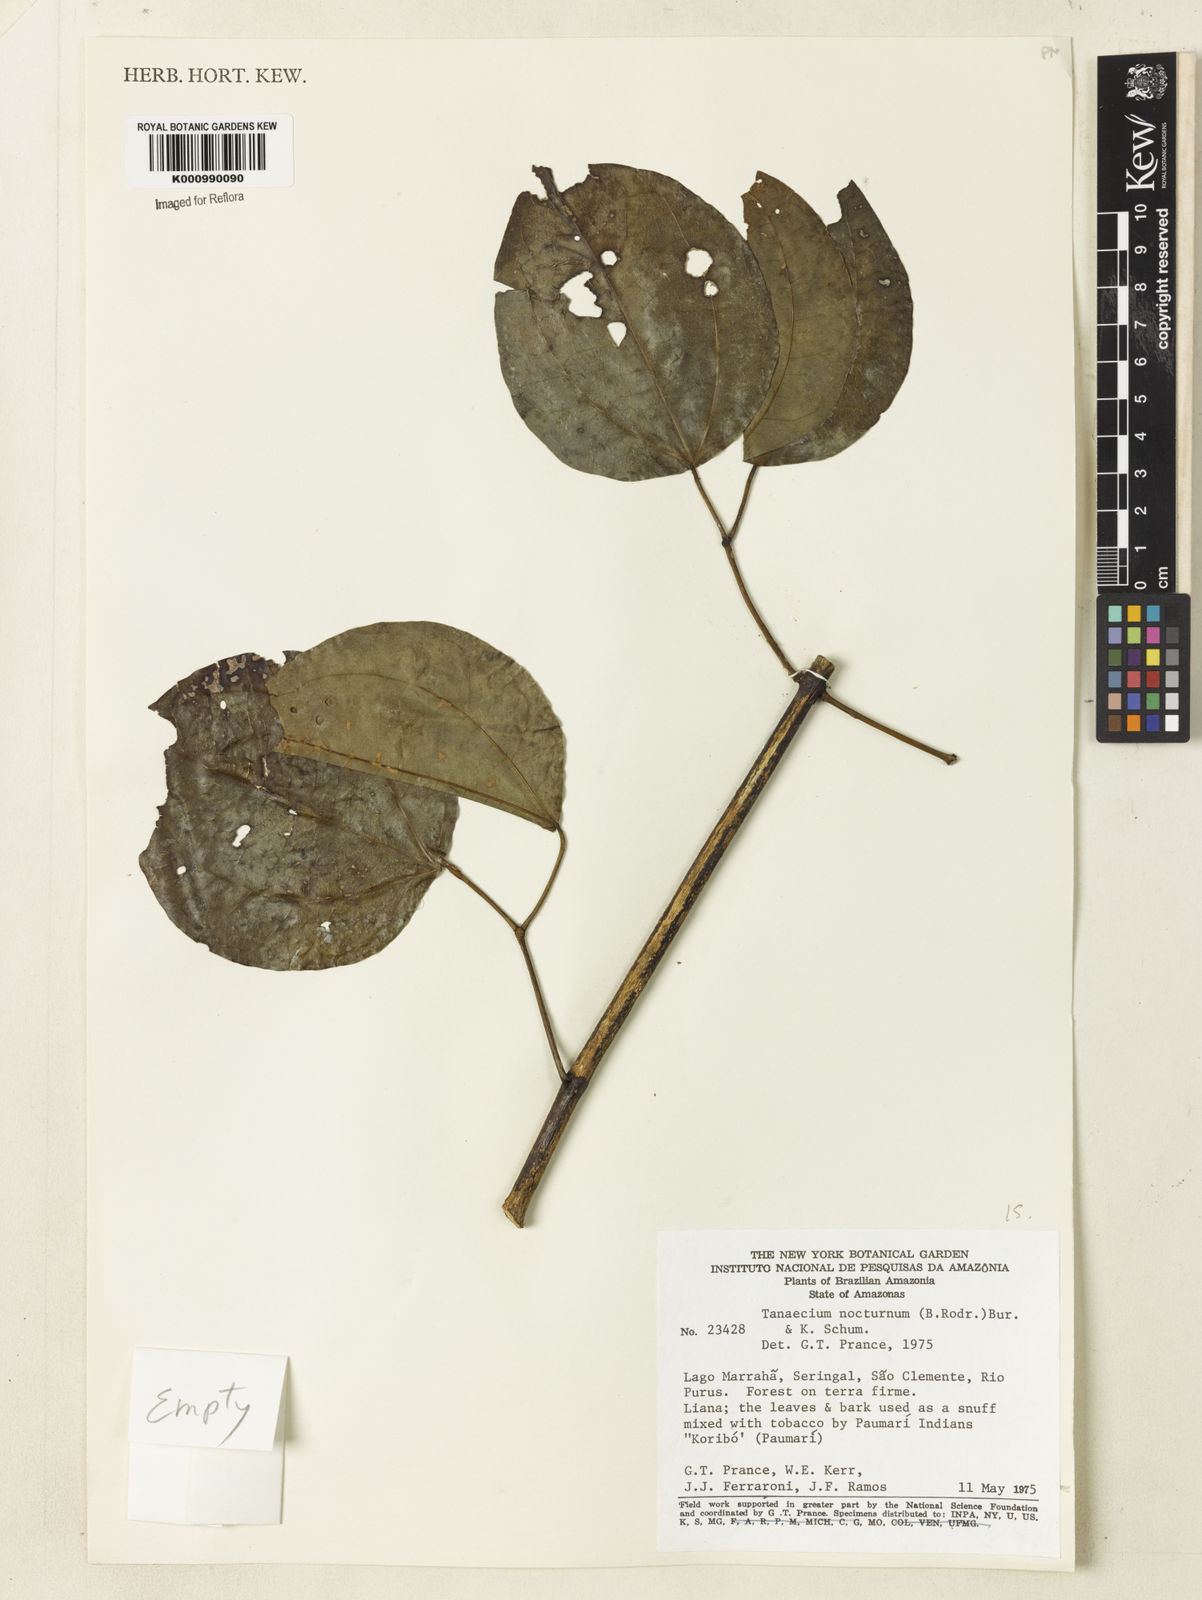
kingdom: Plantae
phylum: Tracheophyta
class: Magnoliopsida
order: Lamiales
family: Bignoniaceae
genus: Bignonia
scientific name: Bignonia nocturna
